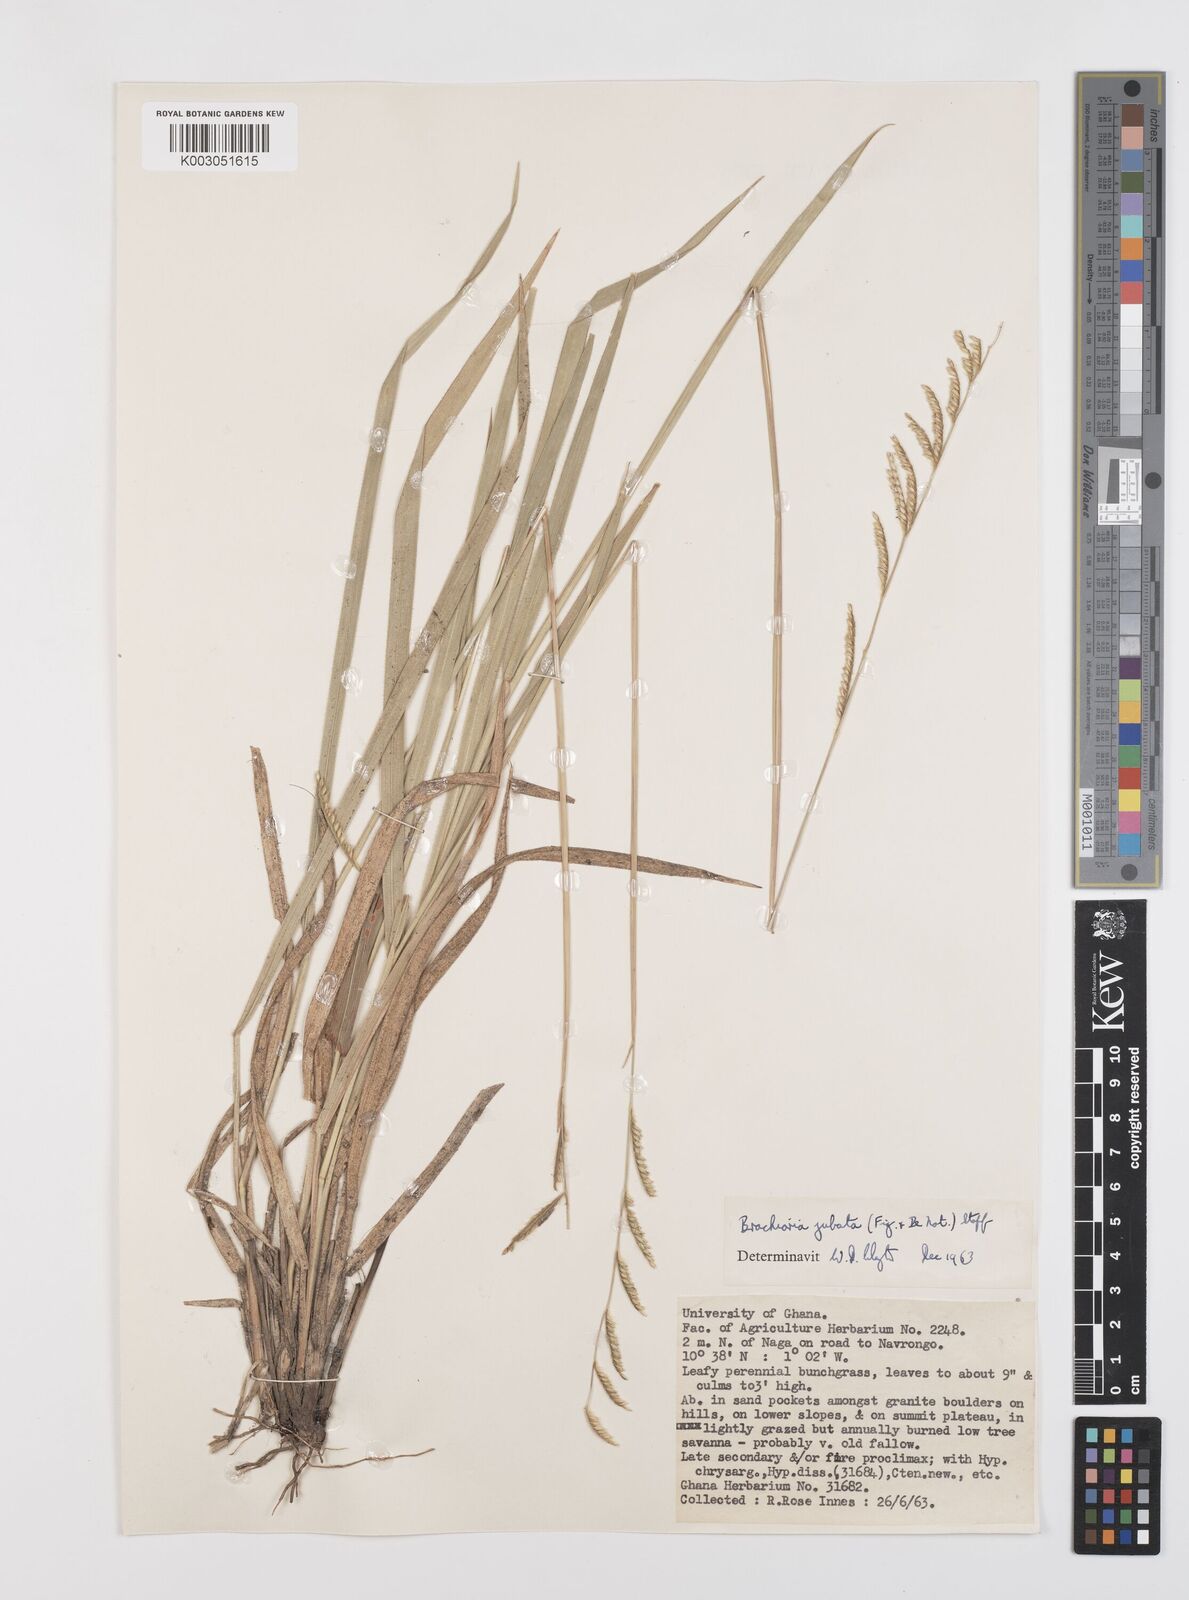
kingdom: Plantae
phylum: Tracheophyta
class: Liliopsida
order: Poales
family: Poaceae
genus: Urochloa
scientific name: Urochloa jubata
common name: Buffalograss
